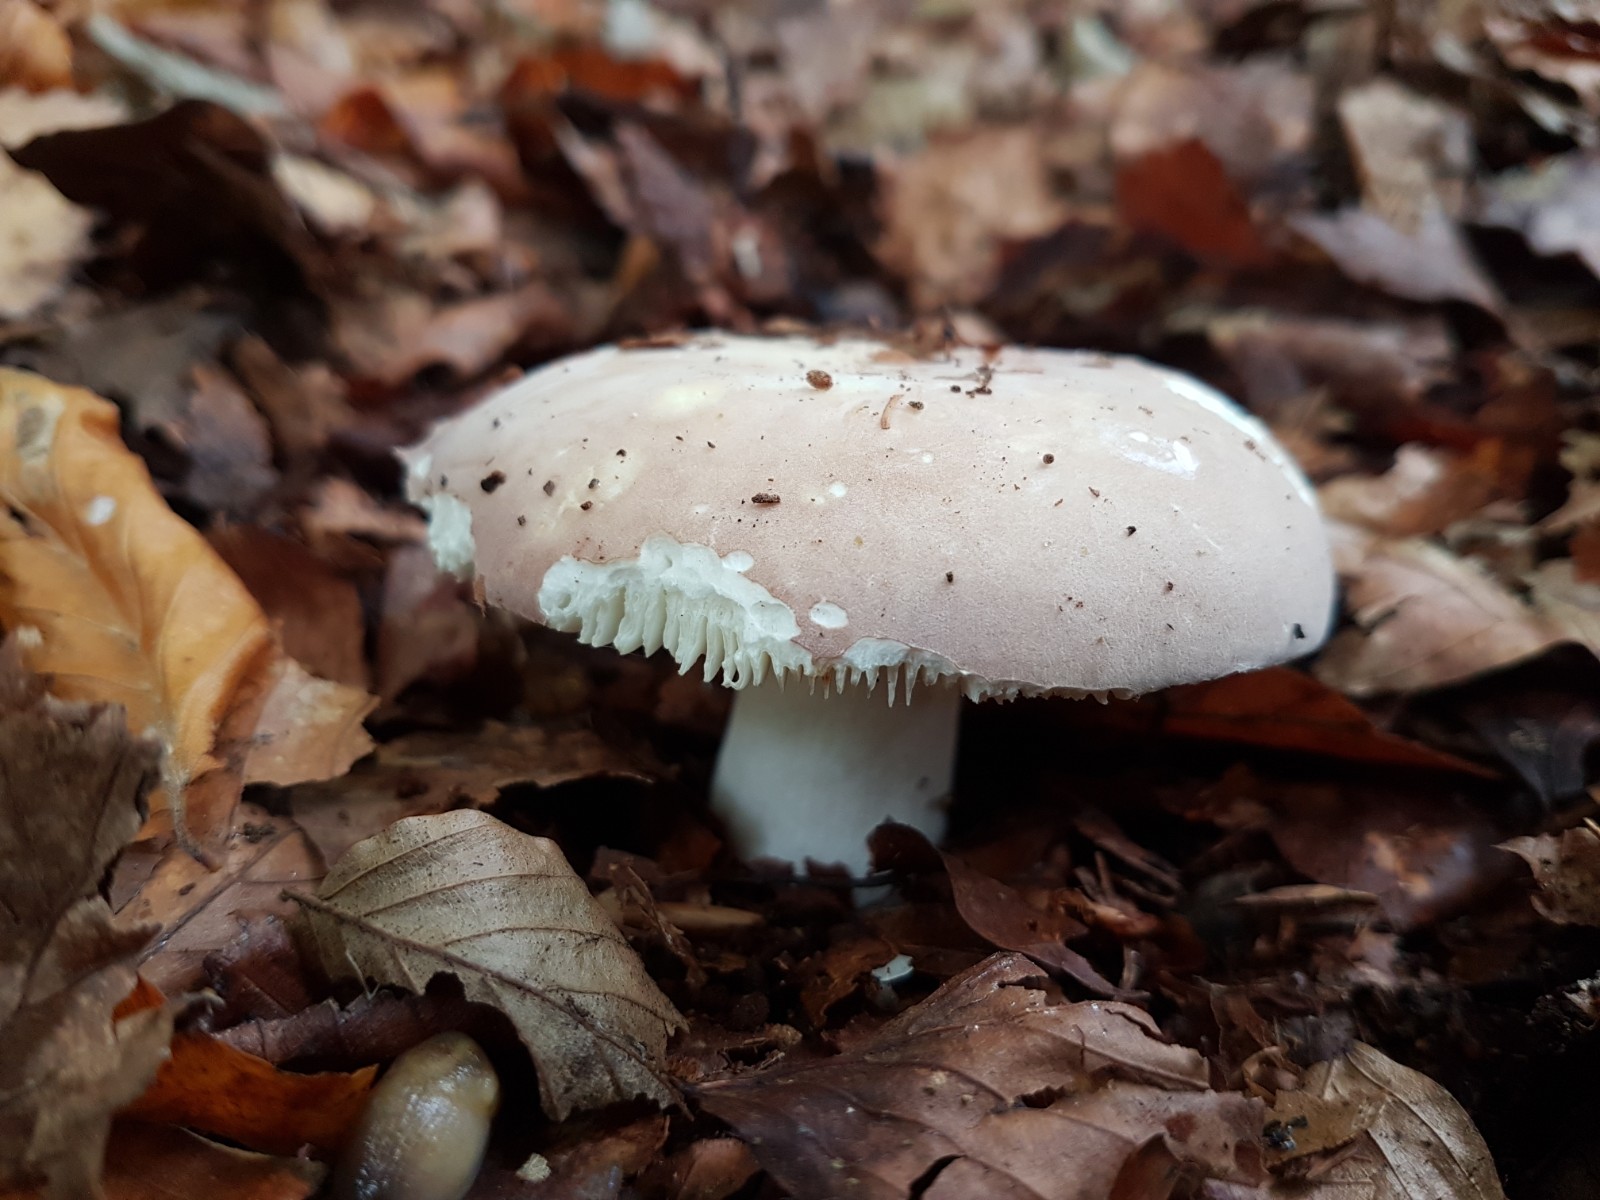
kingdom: Fungi
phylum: Basidiomycota
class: Agaricomycetes
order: Russulales
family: Russulaceae
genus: Russula
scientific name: Russula
